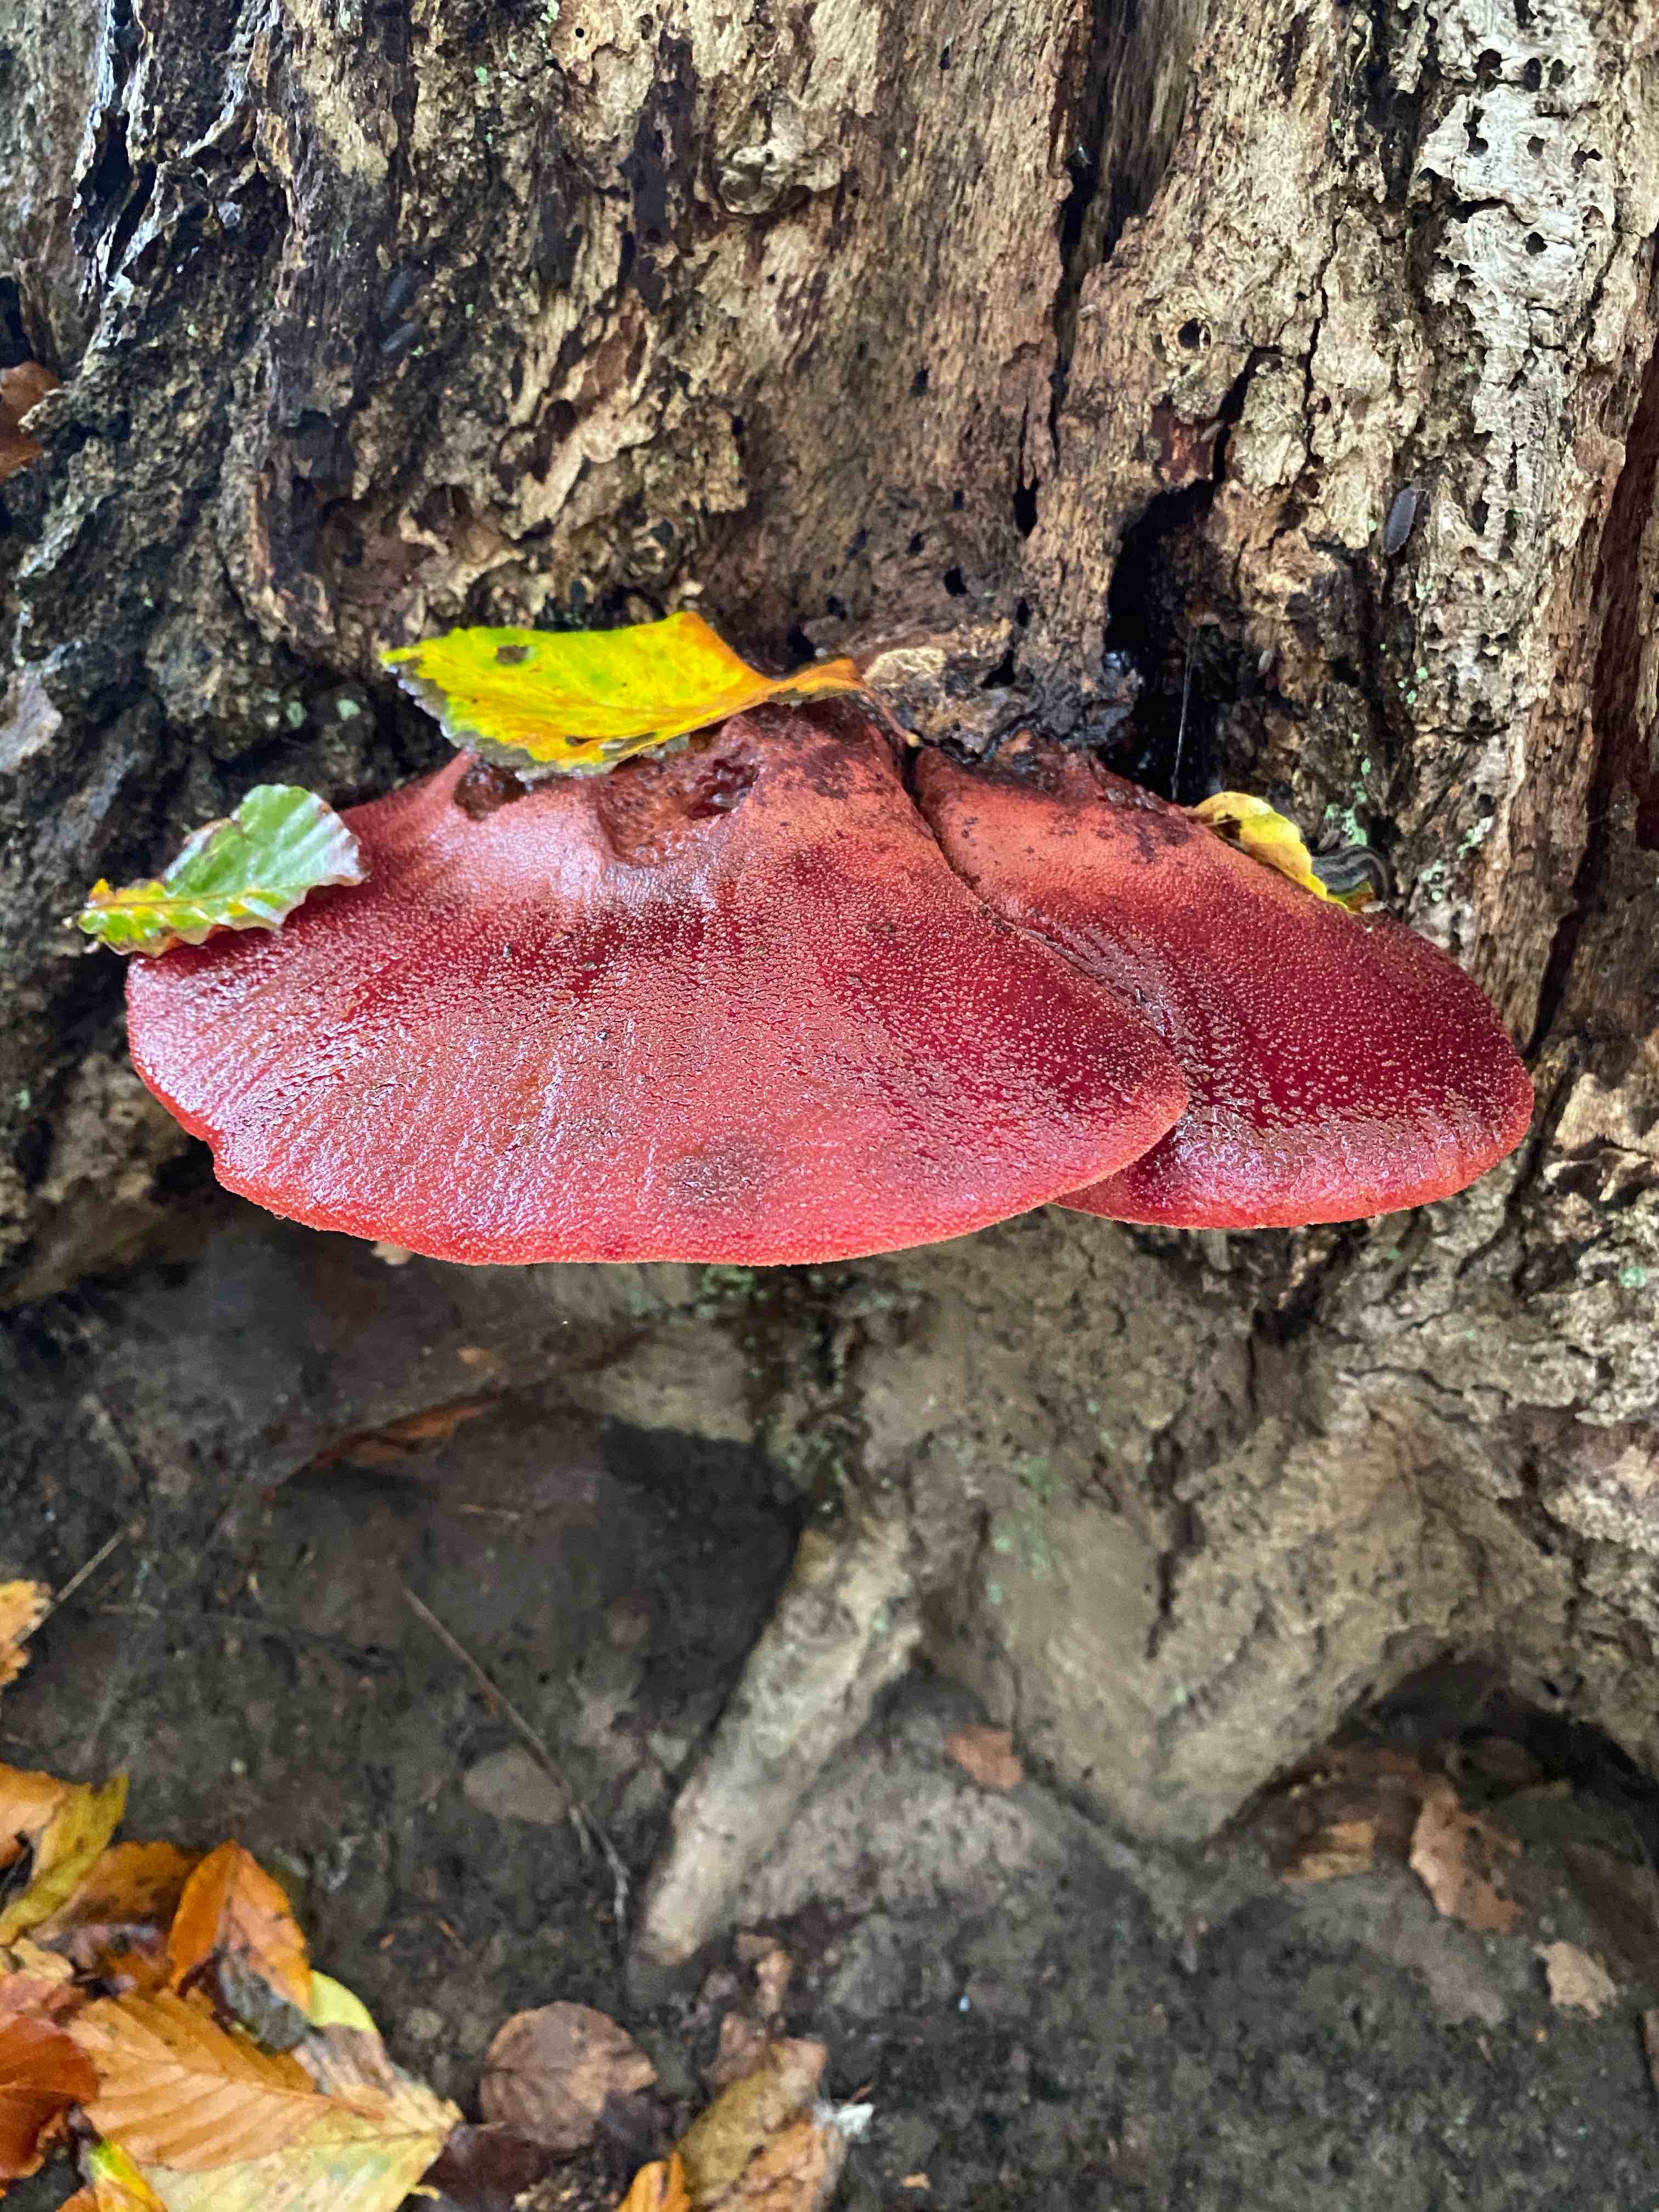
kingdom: Fungi
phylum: Basidiomycota
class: Agaricomycetes
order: Agaricales
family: Fistulinaceae
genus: Fistulina
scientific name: Fistulina hepatica
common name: oksetunge
